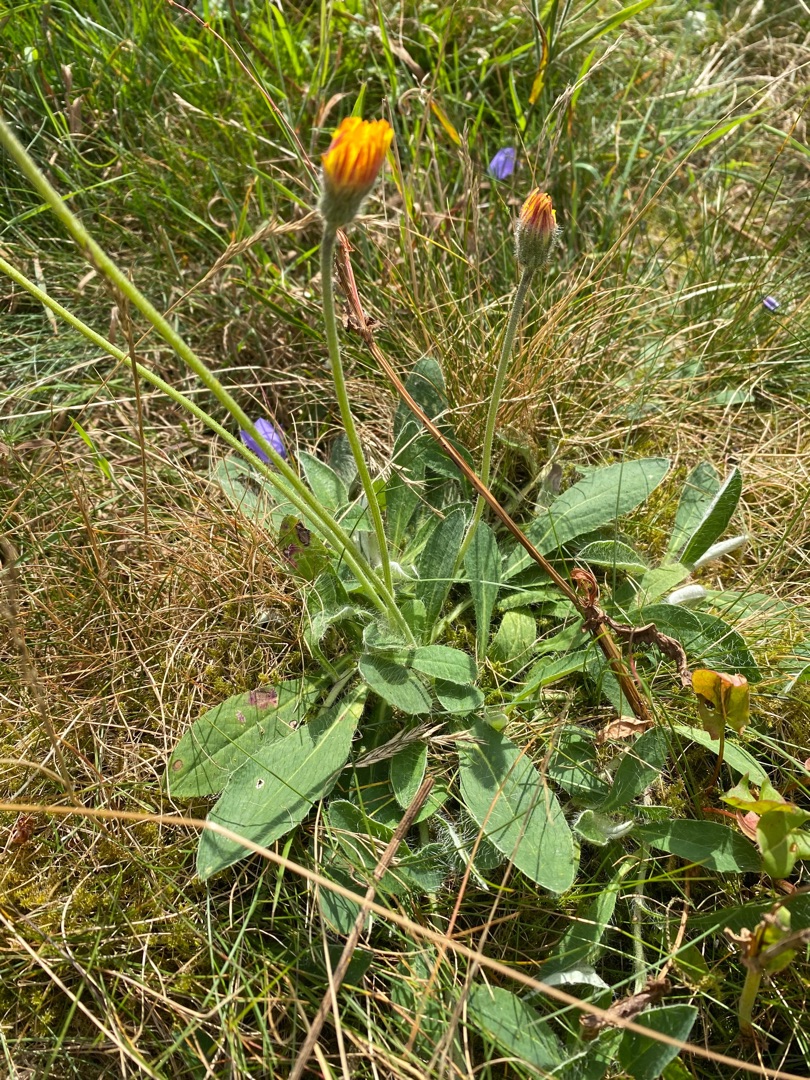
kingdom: Plantae
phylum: Tracheophyta
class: Magnoliopsida
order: Asterales
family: Asteraceae
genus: Pilosella
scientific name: Pilosella officinarum
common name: Håret høgeurt
